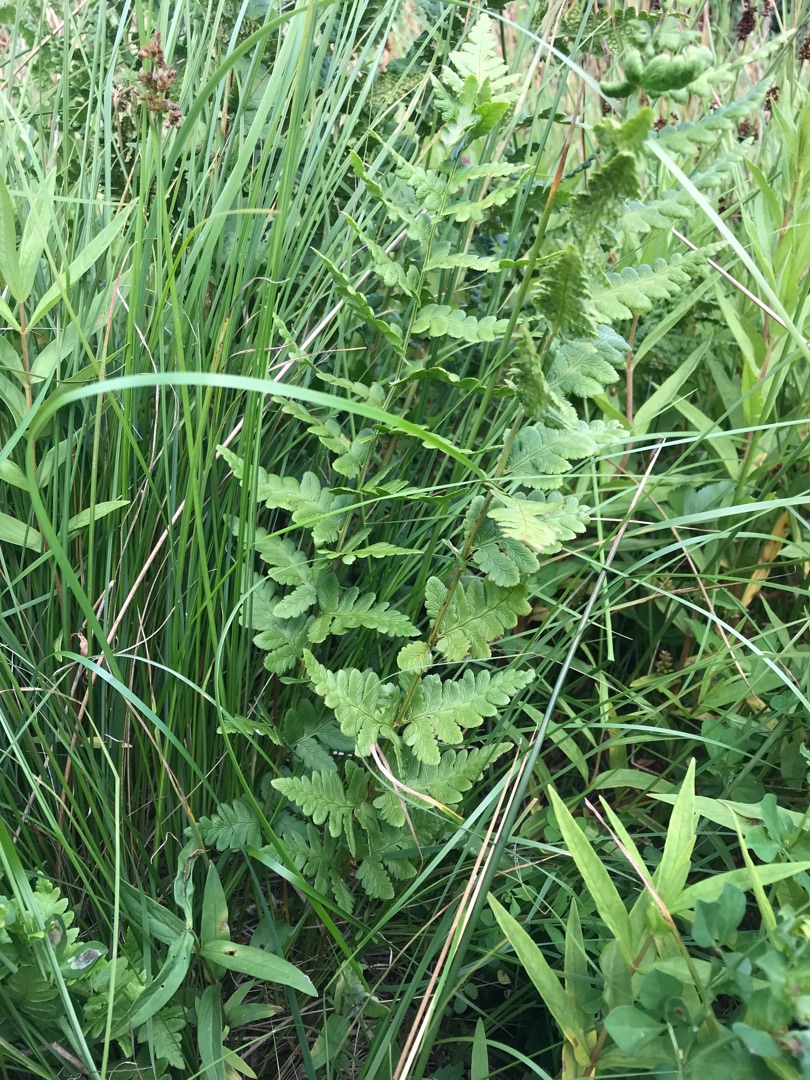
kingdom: Plantae
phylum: Tracheophyta
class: Polypodiopsida
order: Polypodiales
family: Dryopteridaceae
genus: Dryopteris
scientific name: Dryopteris cristata
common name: Butfinnet mangeløv
